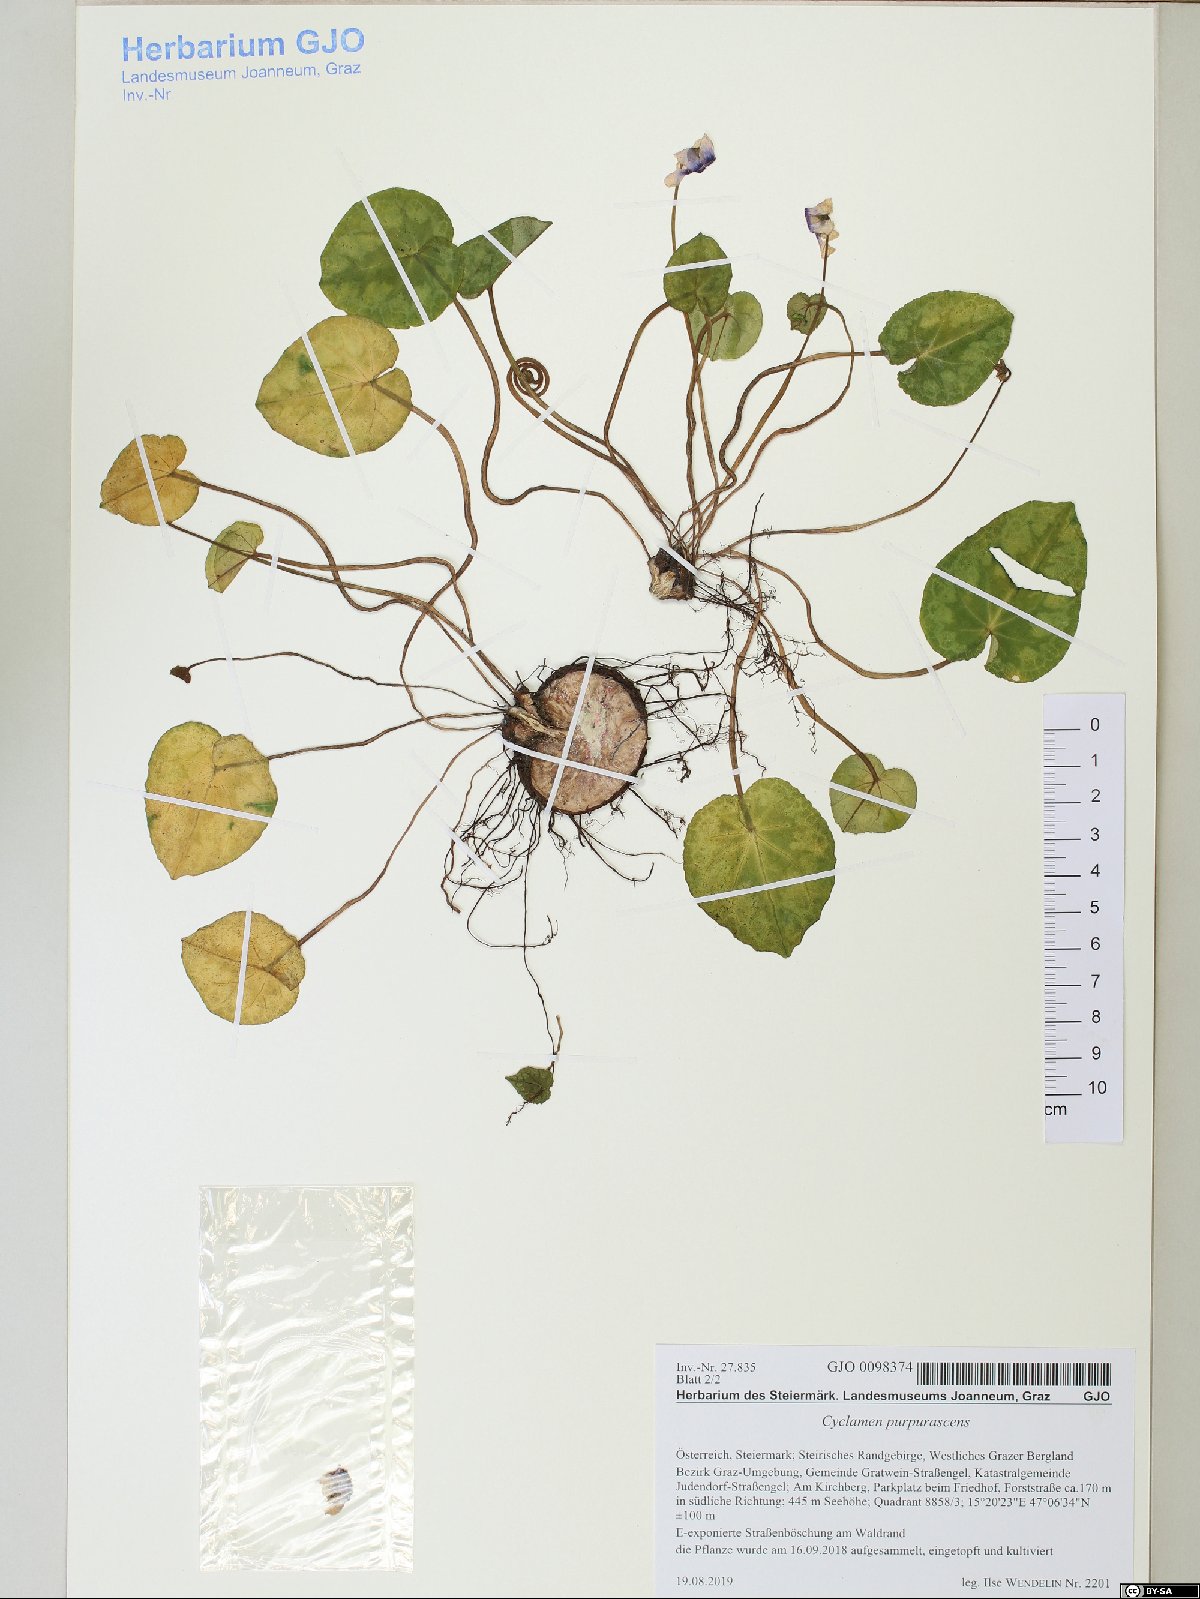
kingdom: Plantae
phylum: Tracheophyta
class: Magnoliopsida
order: Ericales
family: Primulaceae
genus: Cyclamen
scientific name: Cyclamen purpurascens
